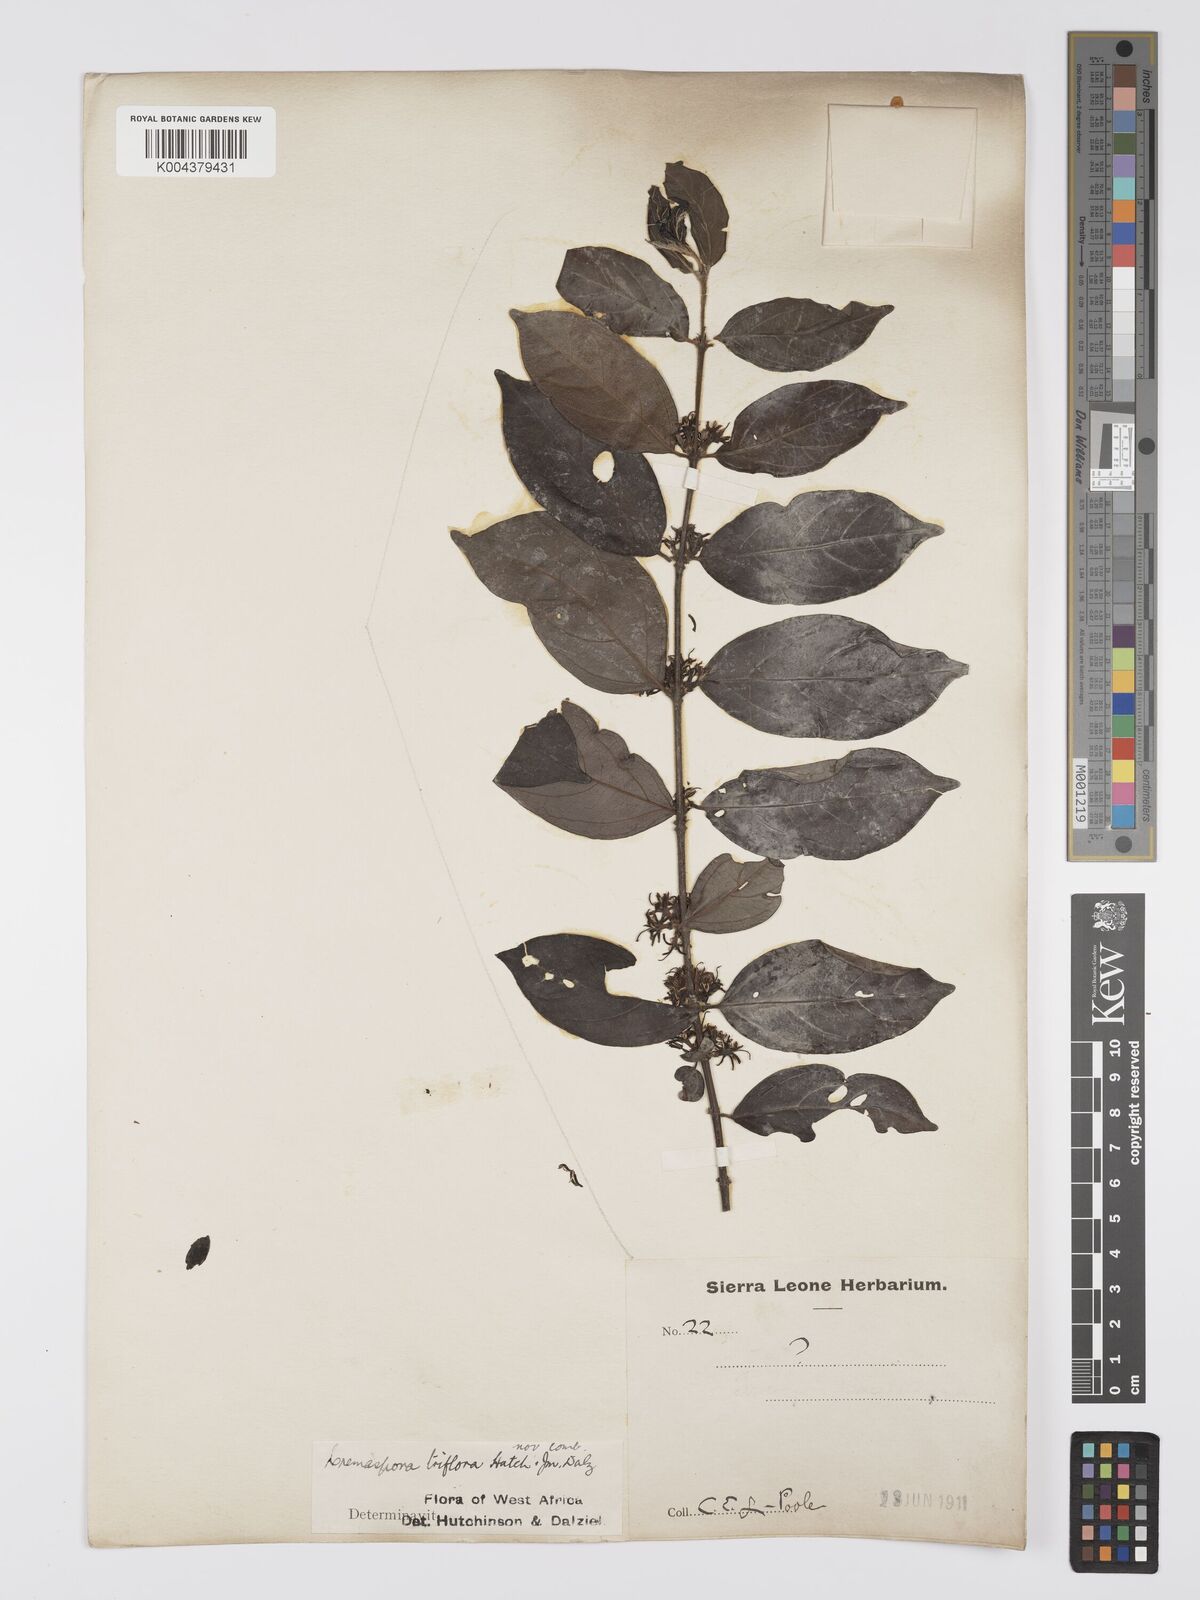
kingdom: Plantae
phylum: Tracheophyta
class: Magnoliopsida
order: Gentianales
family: Rubiaceae
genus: Cremaspora
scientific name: Cremaspora triflora
